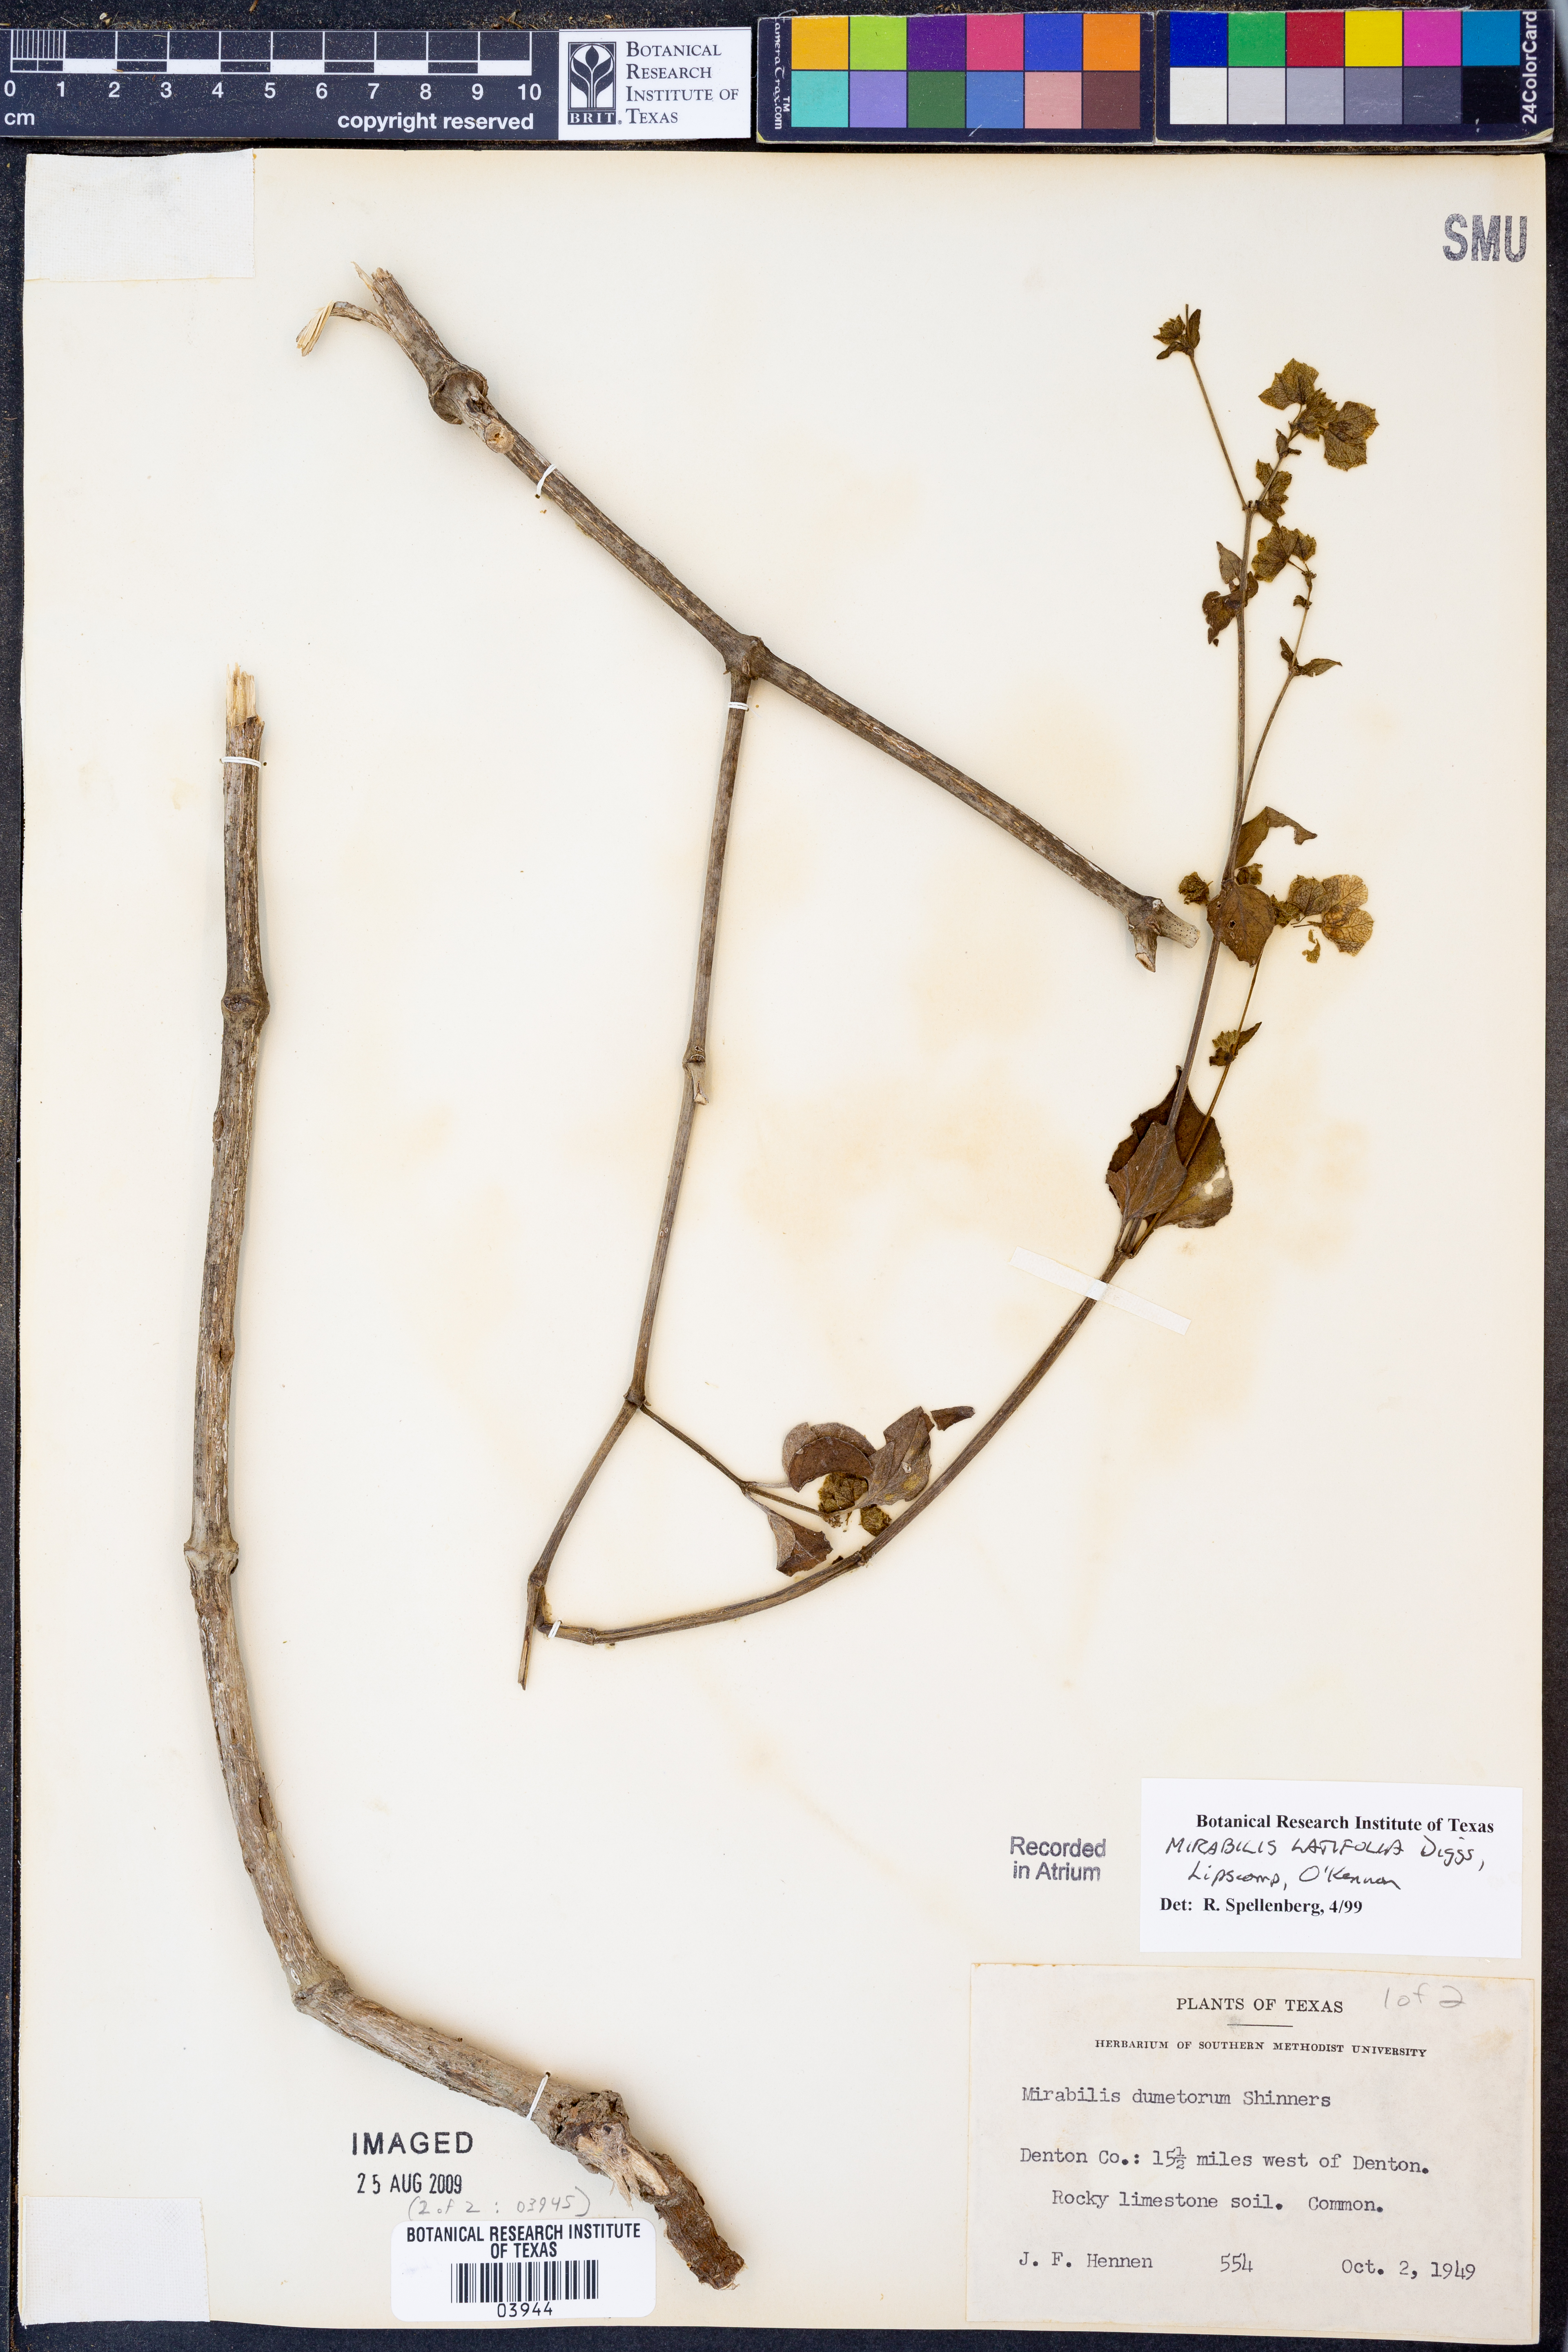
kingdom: Plantae
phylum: Tracheophyta
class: Magnoliopsida
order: Caryophyllales
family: Nyctaginaceae
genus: Mirabilis
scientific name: Mirabilis latifolia
